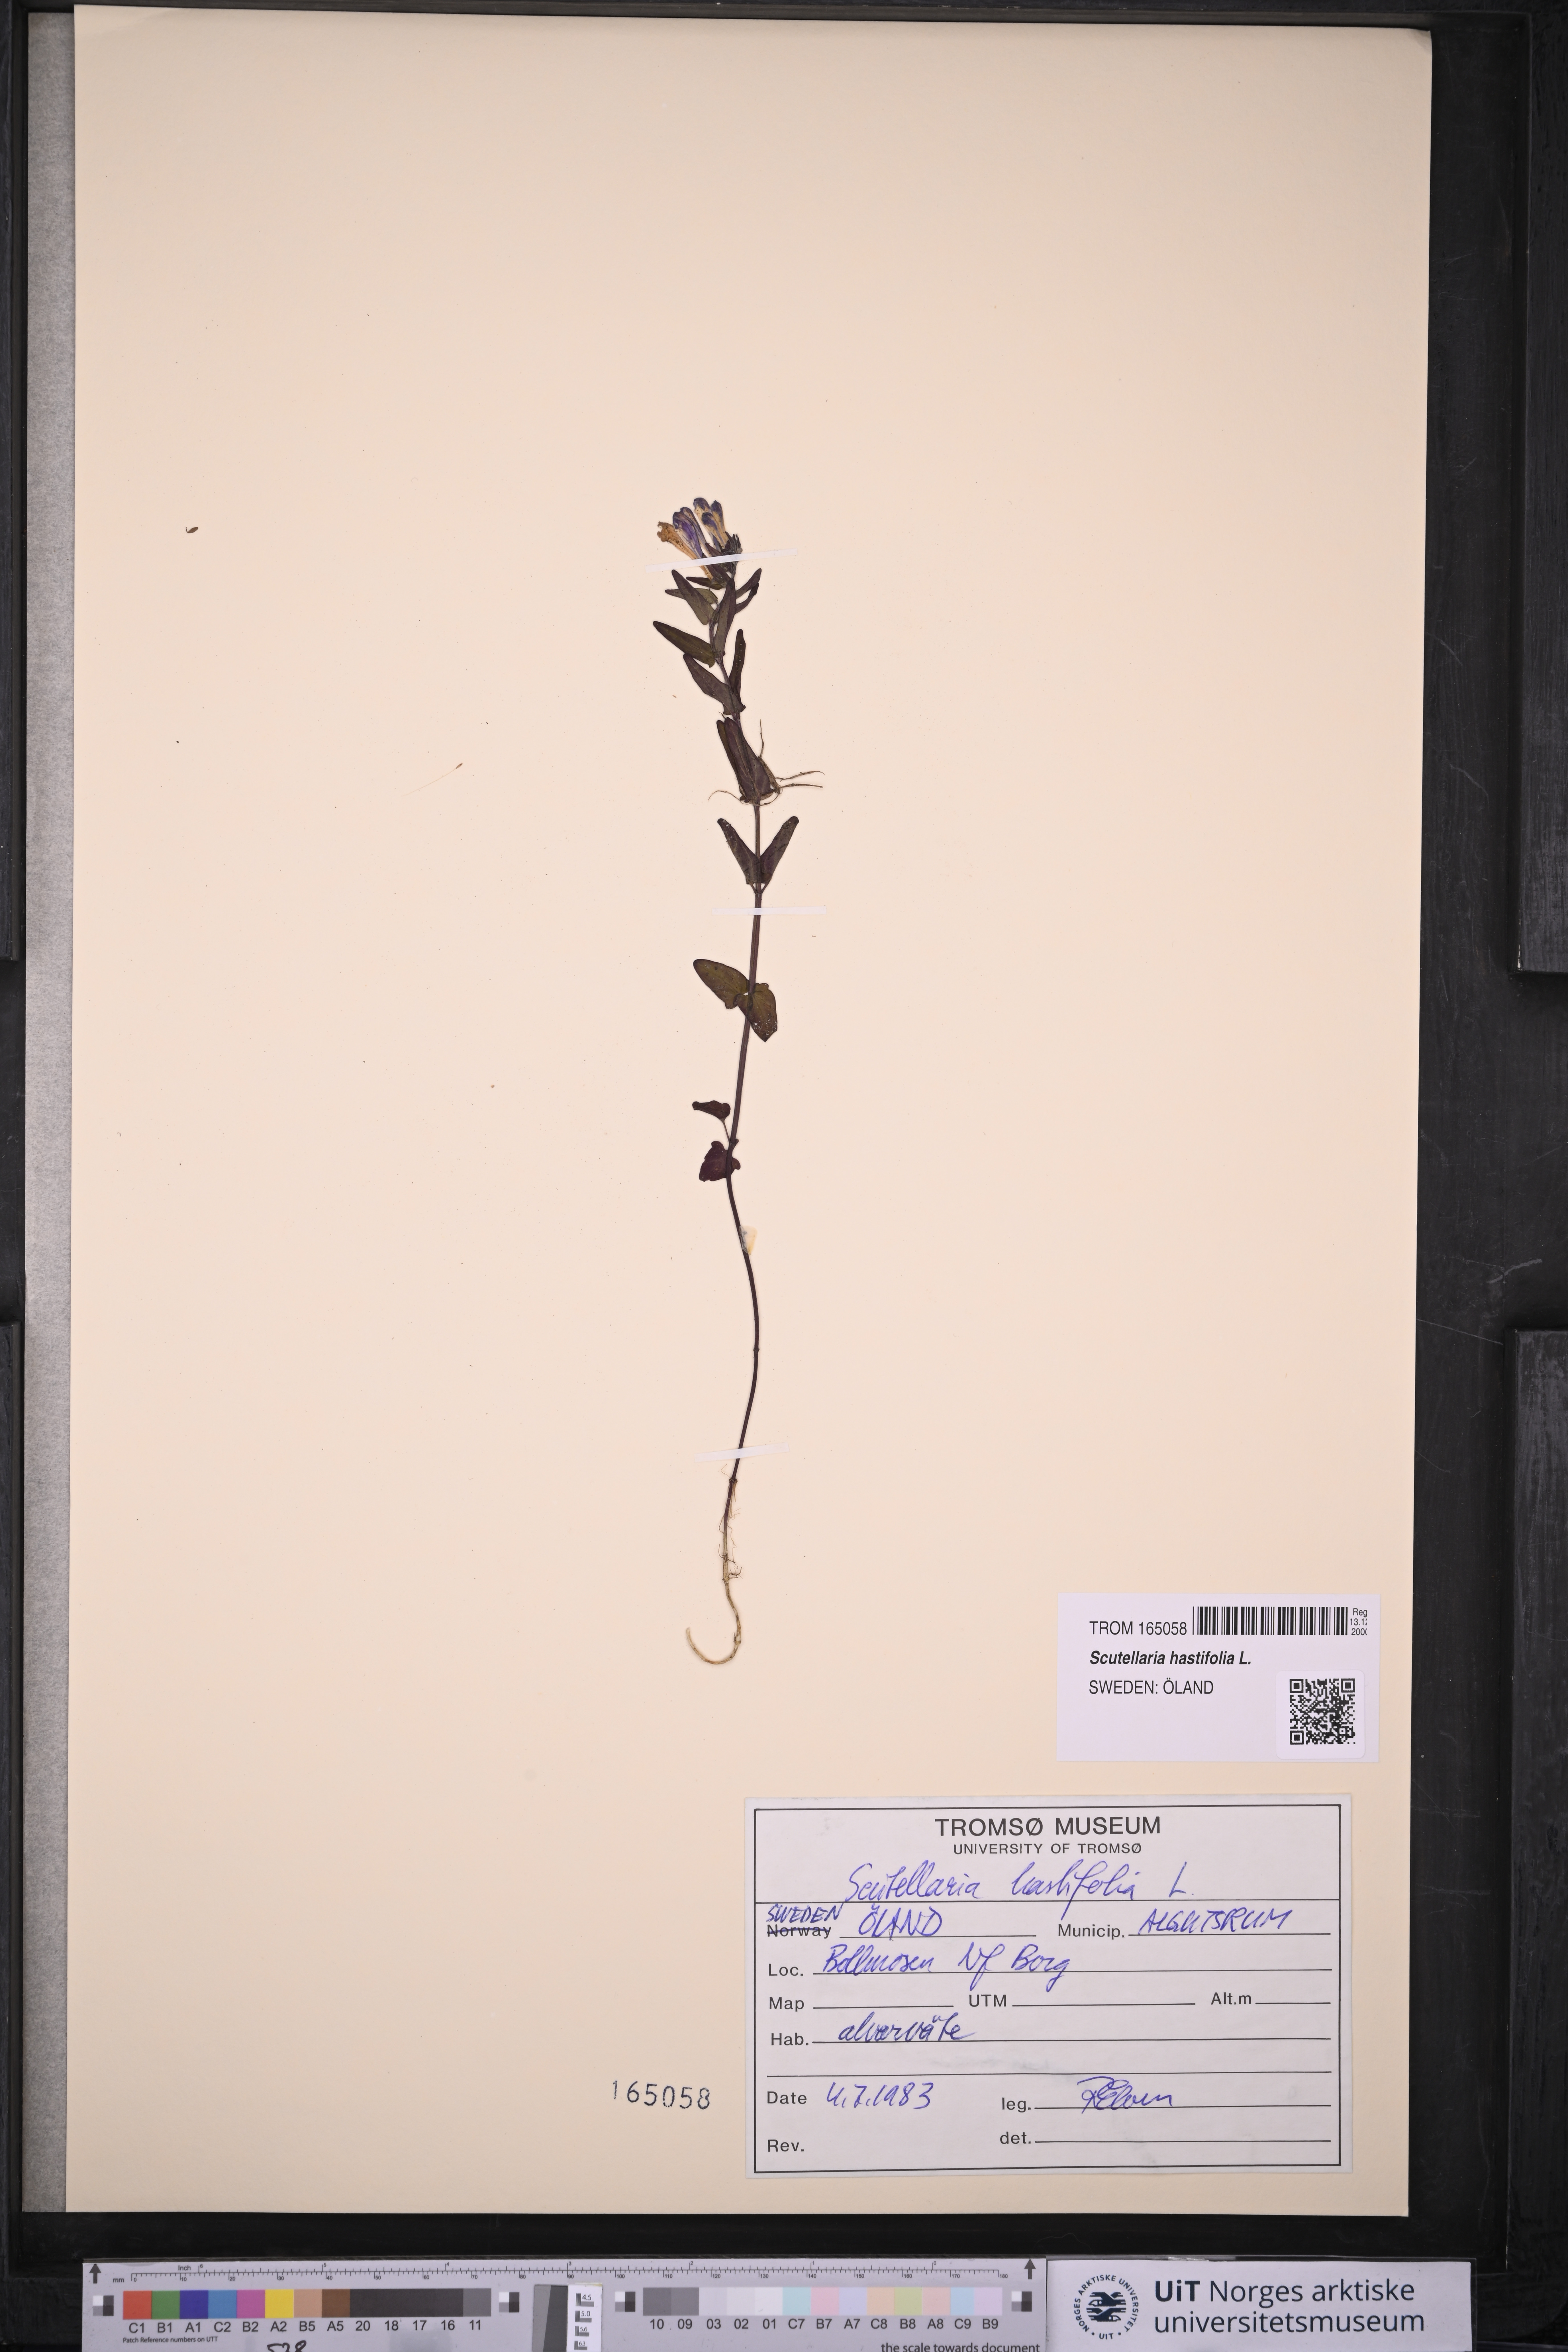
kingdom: Plantae
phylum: Tracheophyta
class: Magnoliopsida
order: Lamiales
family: Lamiaceae
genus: Scutellaria
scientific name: Scutellaria hastifolia
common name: Norfolk skullcap
